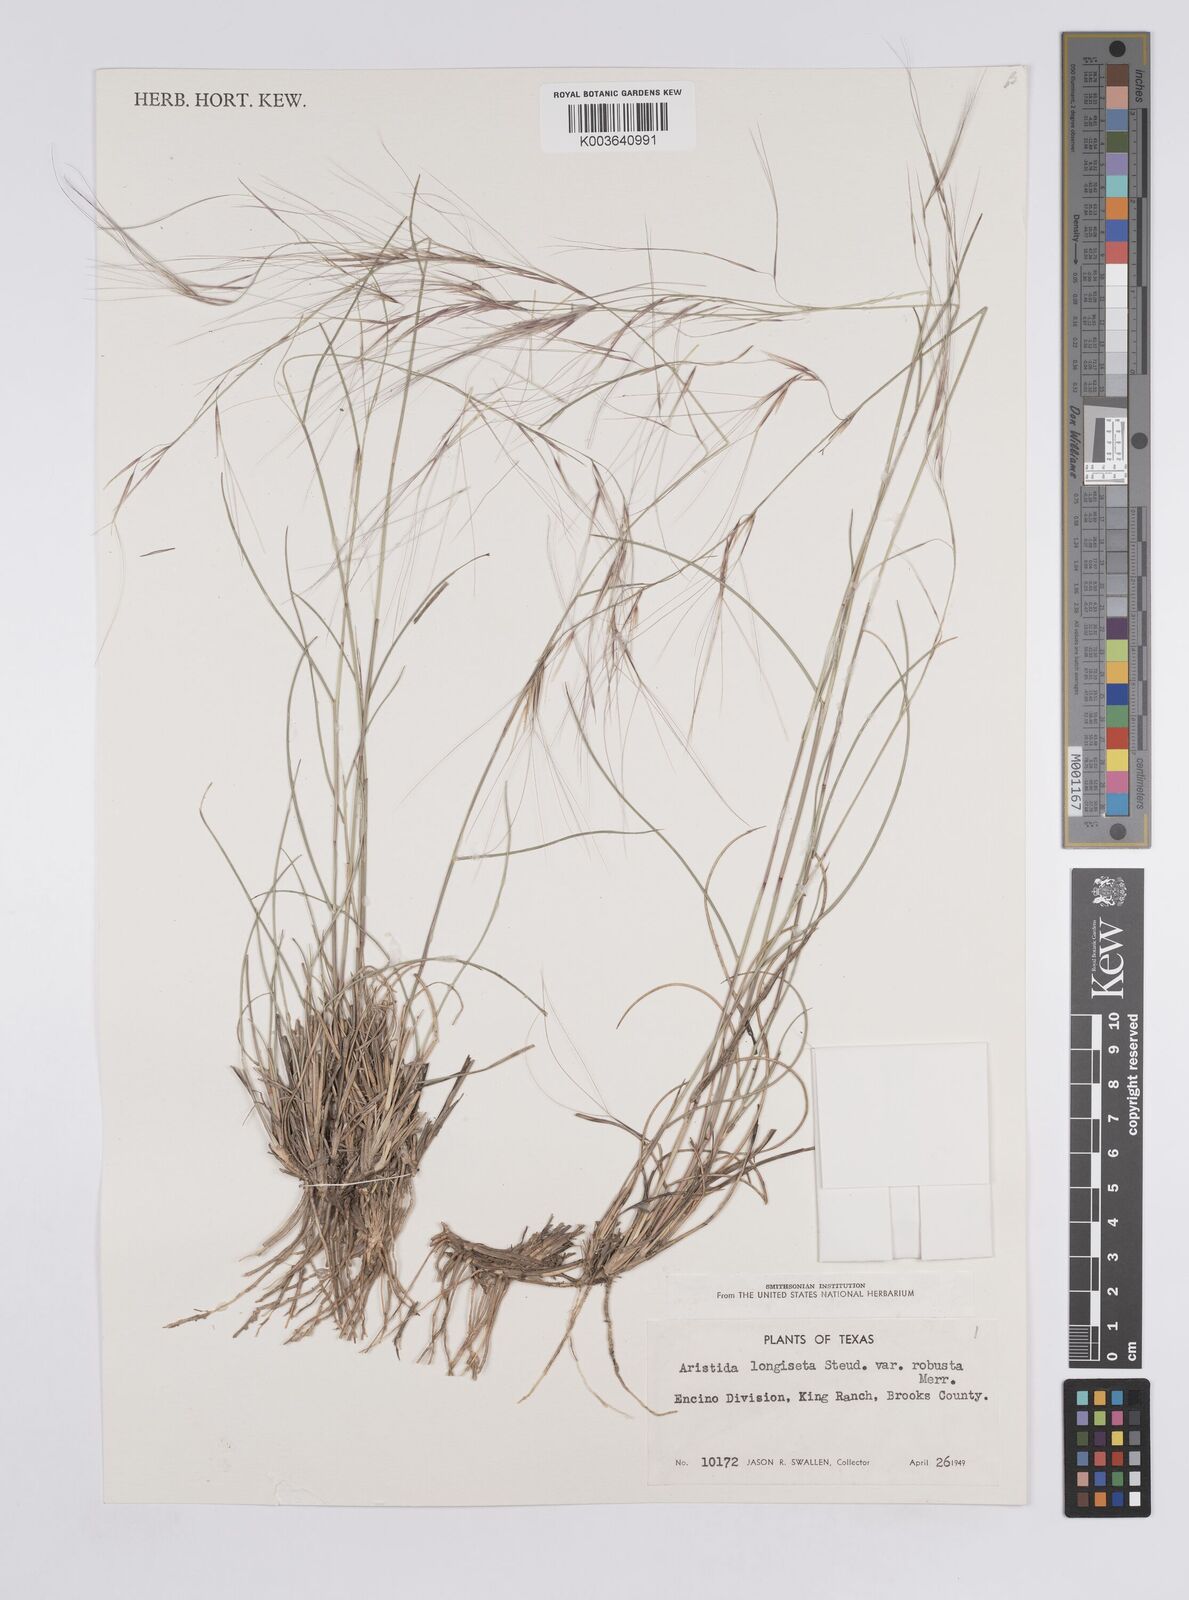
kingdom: Plantae
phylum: Tracheophyta
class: Liliopsida
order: Poales
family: Poaceae
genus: Aristida
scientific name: Aristida purpurea
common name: Purple threeawn
